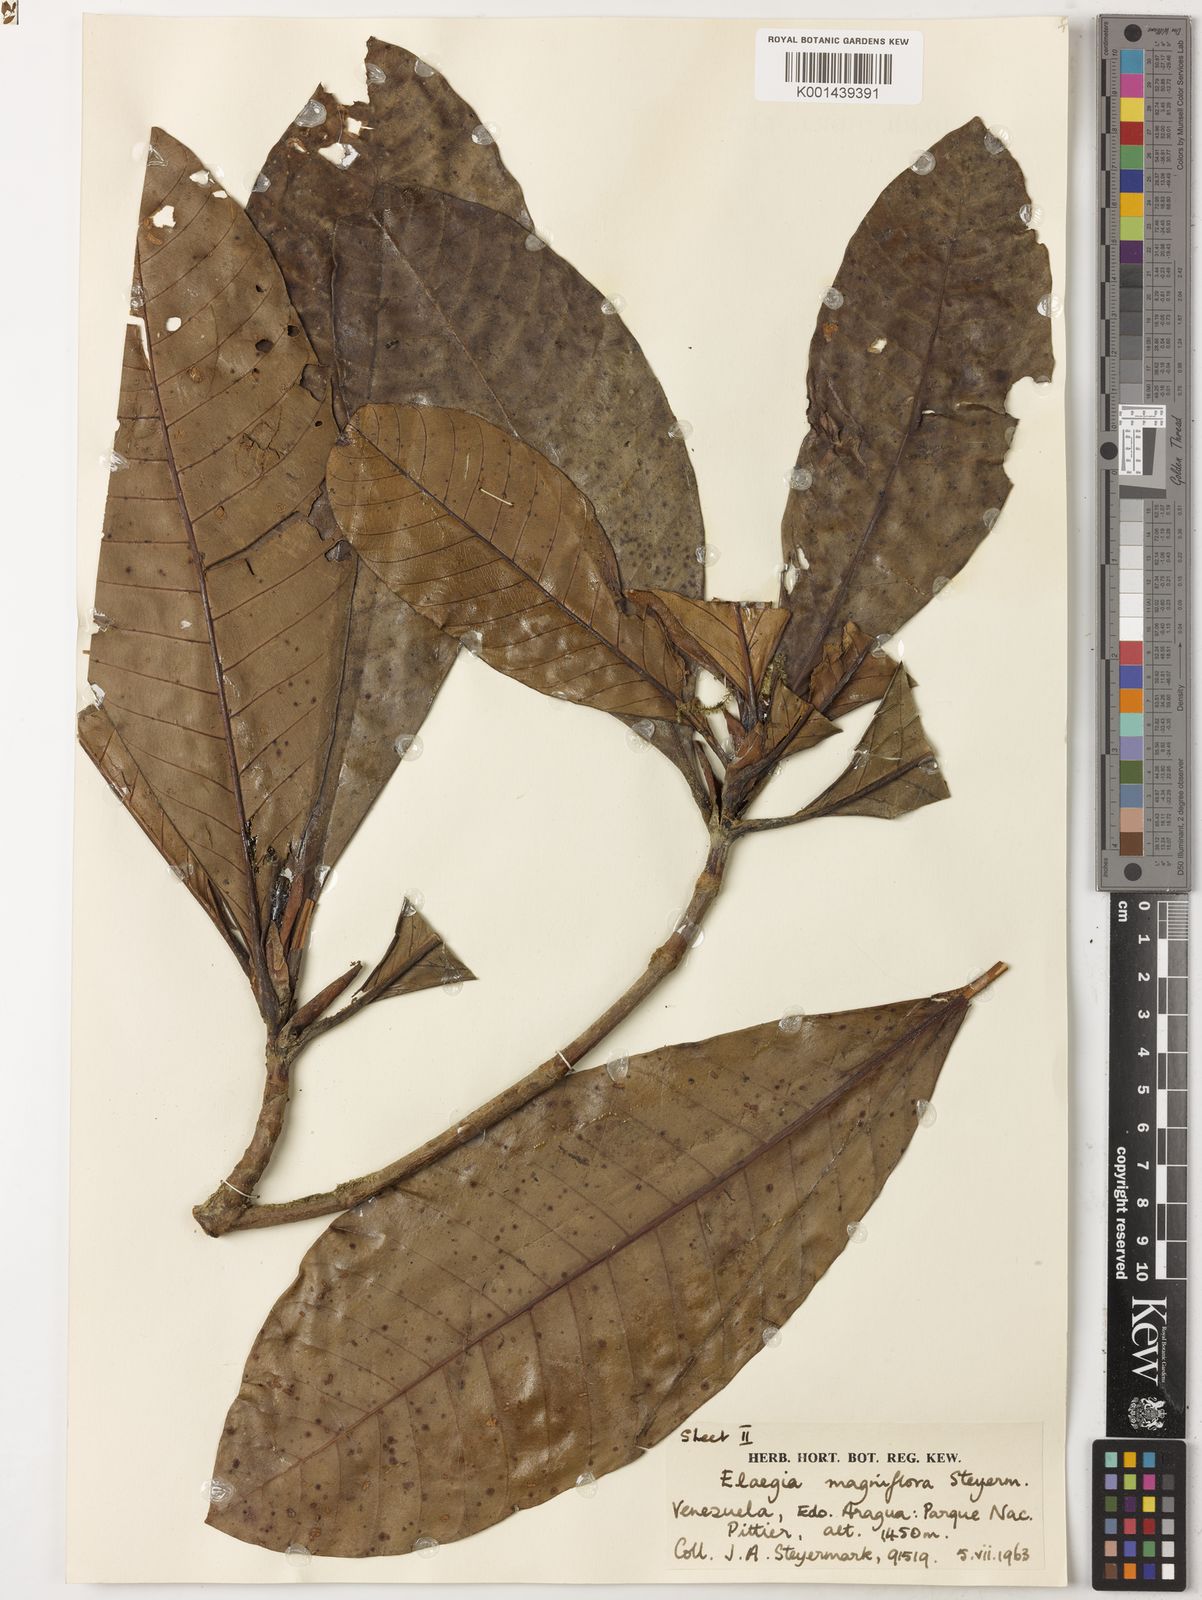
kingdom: Plantae
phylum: Tracheophyta
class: Magnoliopsida
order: Gentianales
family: Rubiaceae
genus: Elaeagia
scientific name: Elaeagia magniflora
